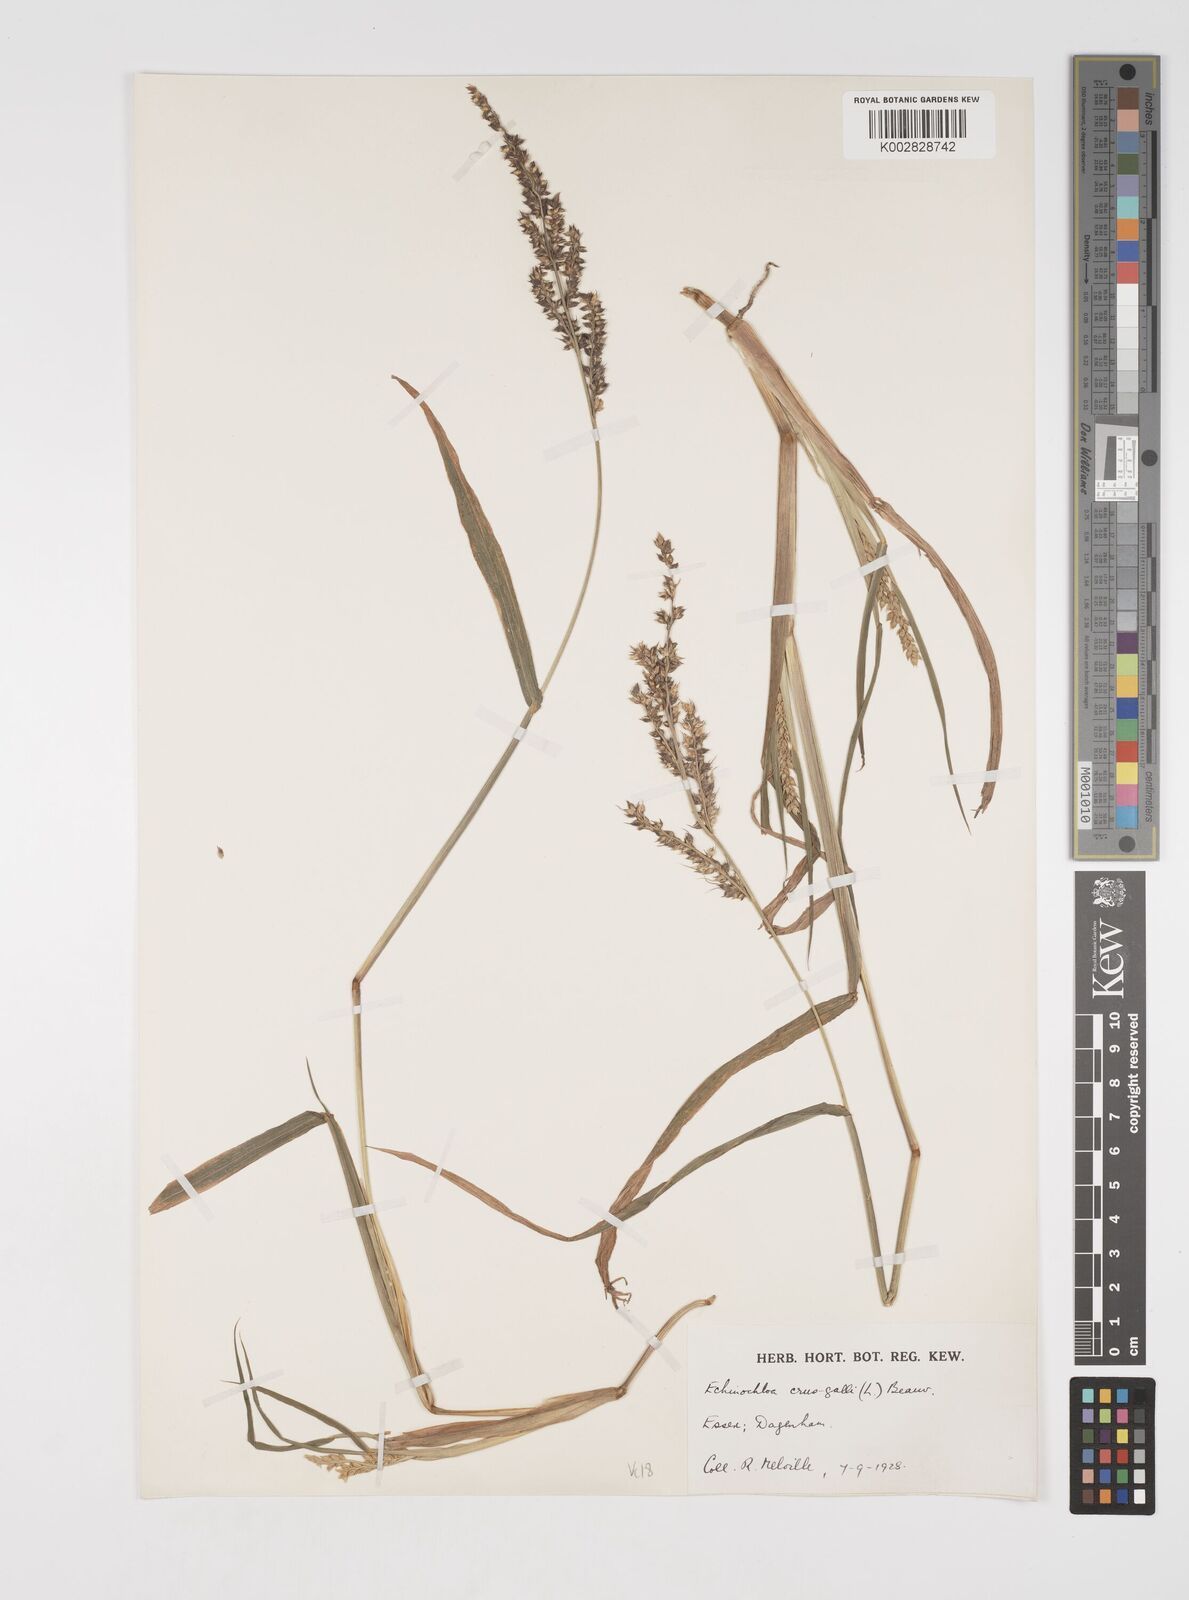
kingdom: Plantae
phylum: Tracheophyta
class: Liliopsida
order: Poales
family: Poaceae
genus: Echinochloa
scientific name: Echinochloa crus-galli
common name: Cockspur
